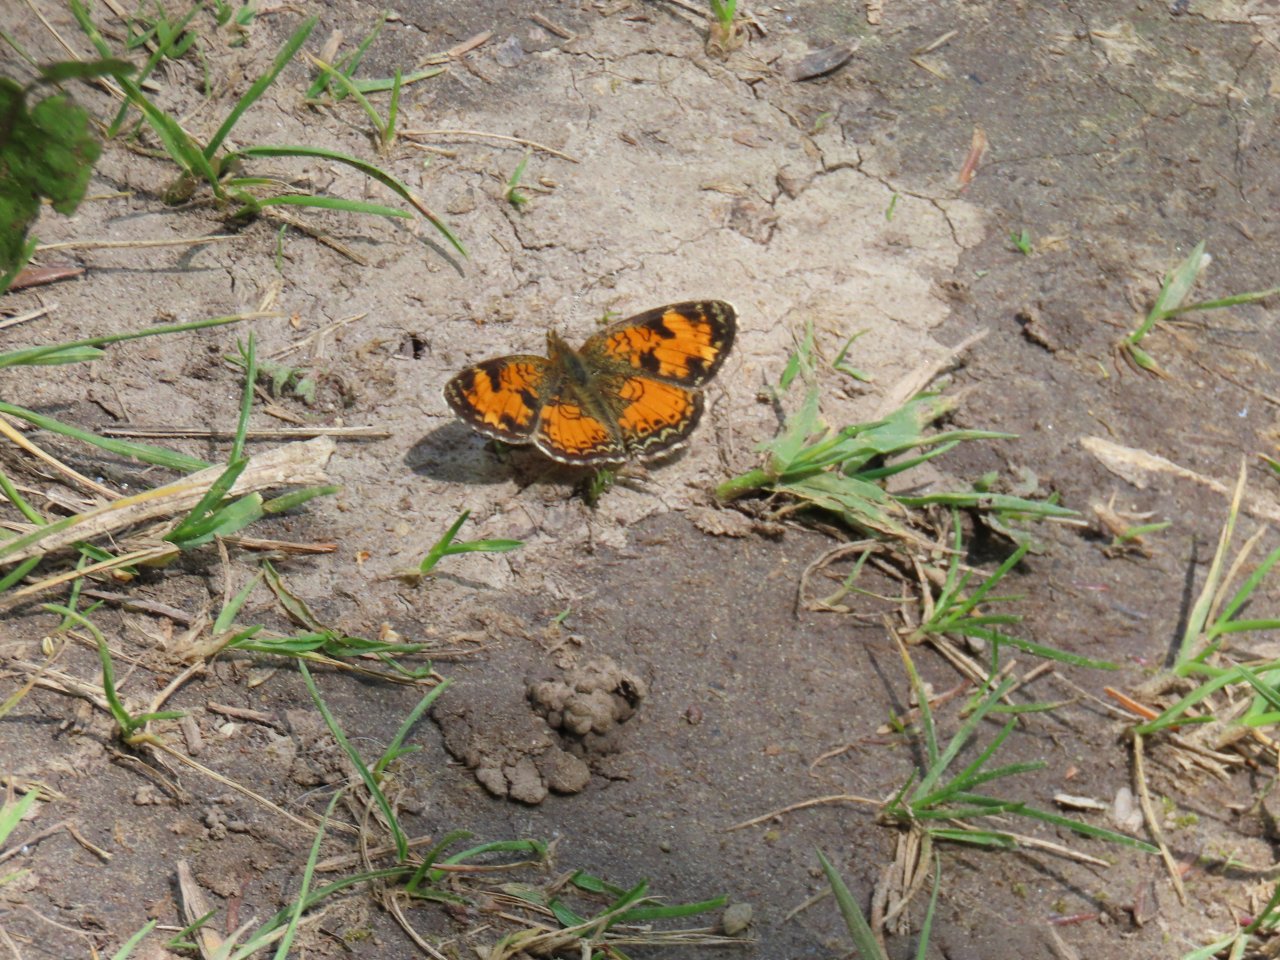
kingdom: Animalia
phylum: Arthropoda
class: Insecta
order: Lepidoptera
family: Nymphalidae
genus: Phyciodes
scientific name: Phyciodes tharos
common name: Northern Crescent
